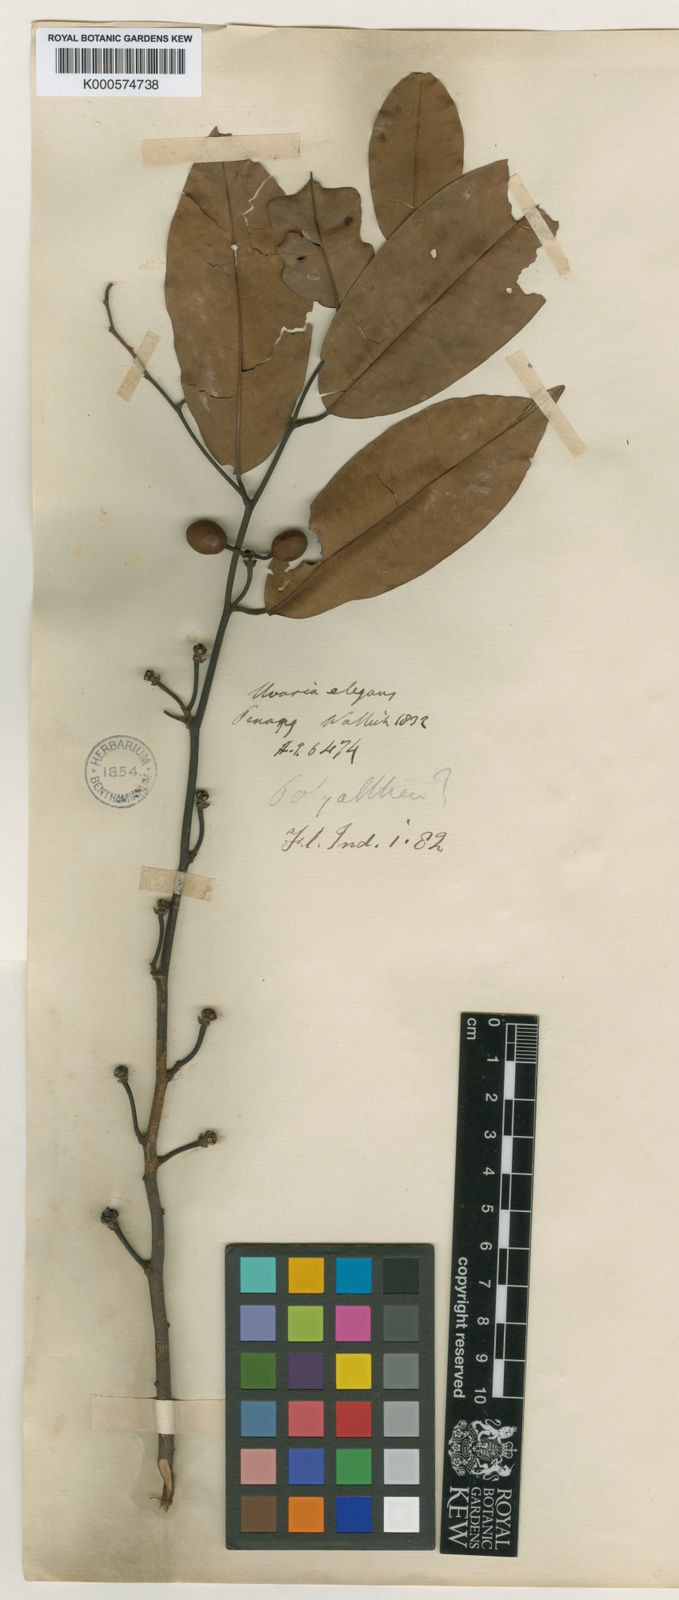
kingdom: Plantae
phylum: Tracheophyta
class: Magnoliopsida
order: Magnoliales
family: Annonaceae
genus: Mitrella
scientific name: Mitrella kentii
